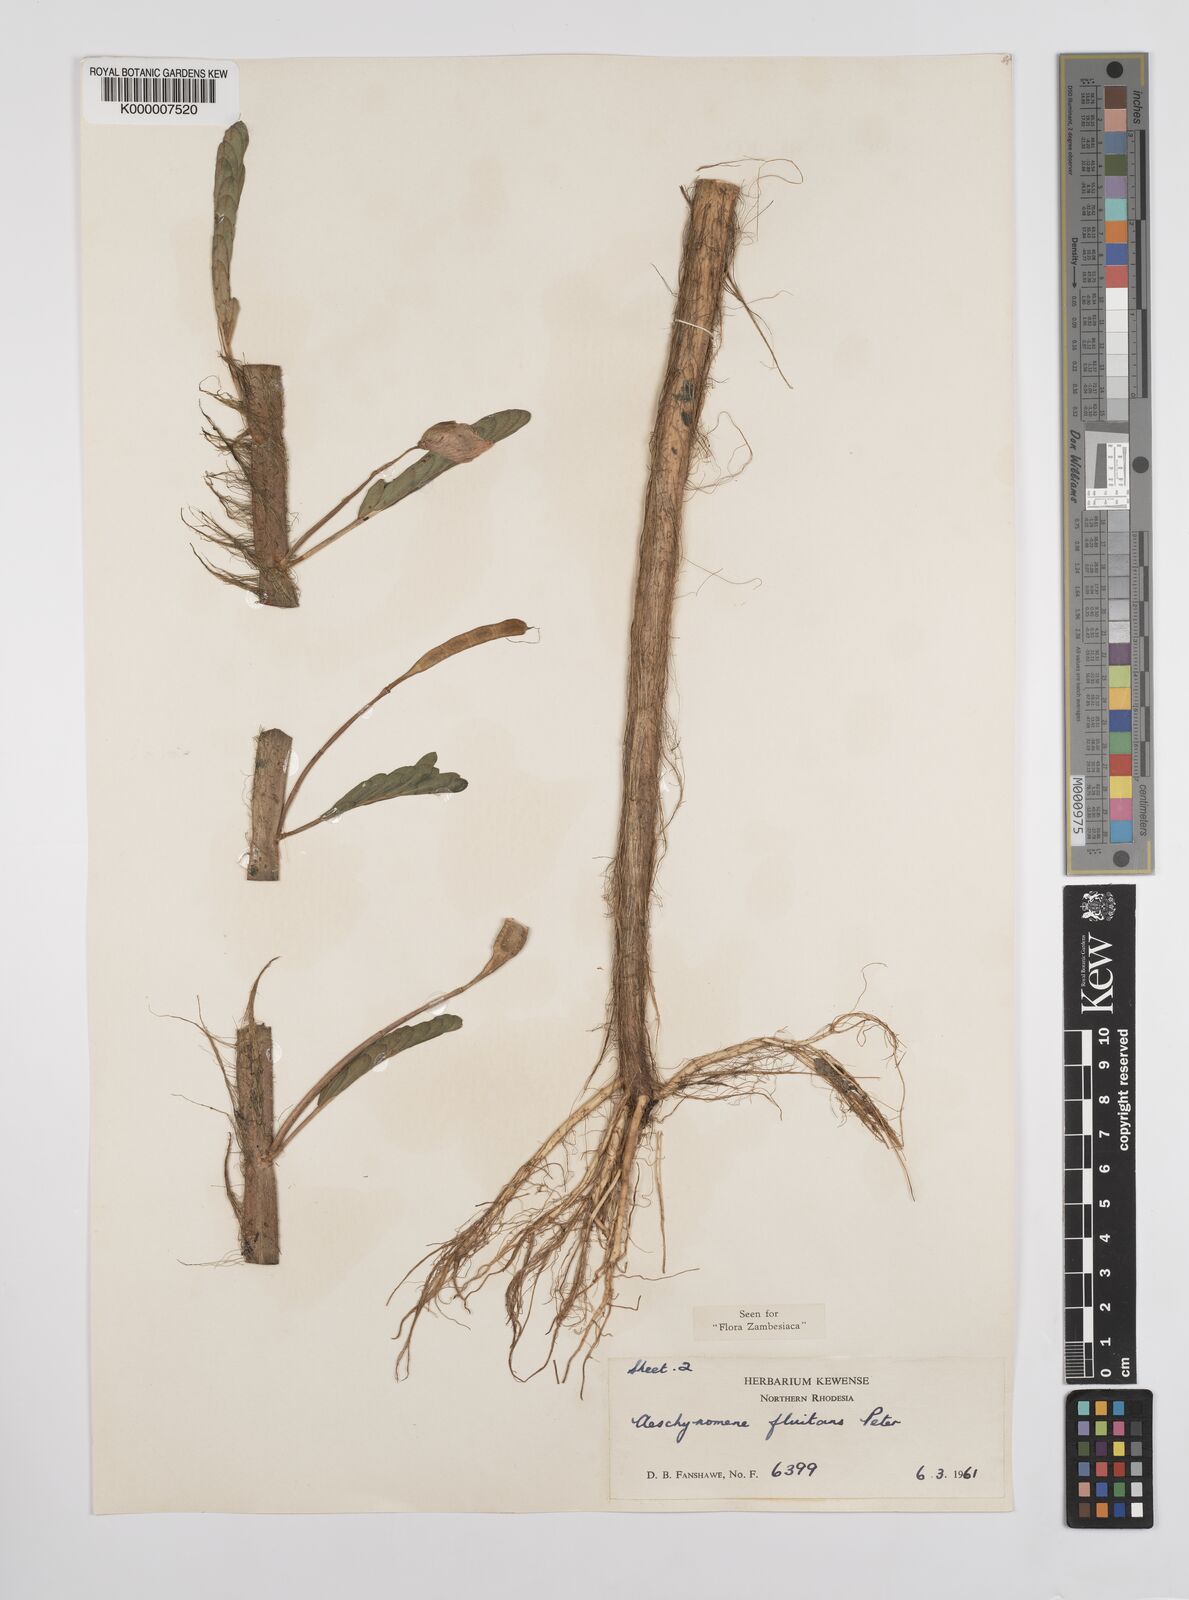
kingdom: Plantae
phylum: Tracheophyta
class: Magnoliopsida
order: Fabales
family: Fabaceae
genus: Aeschynomene
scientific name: Aeschynomene fluitans
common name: Giant water sensitive plant
